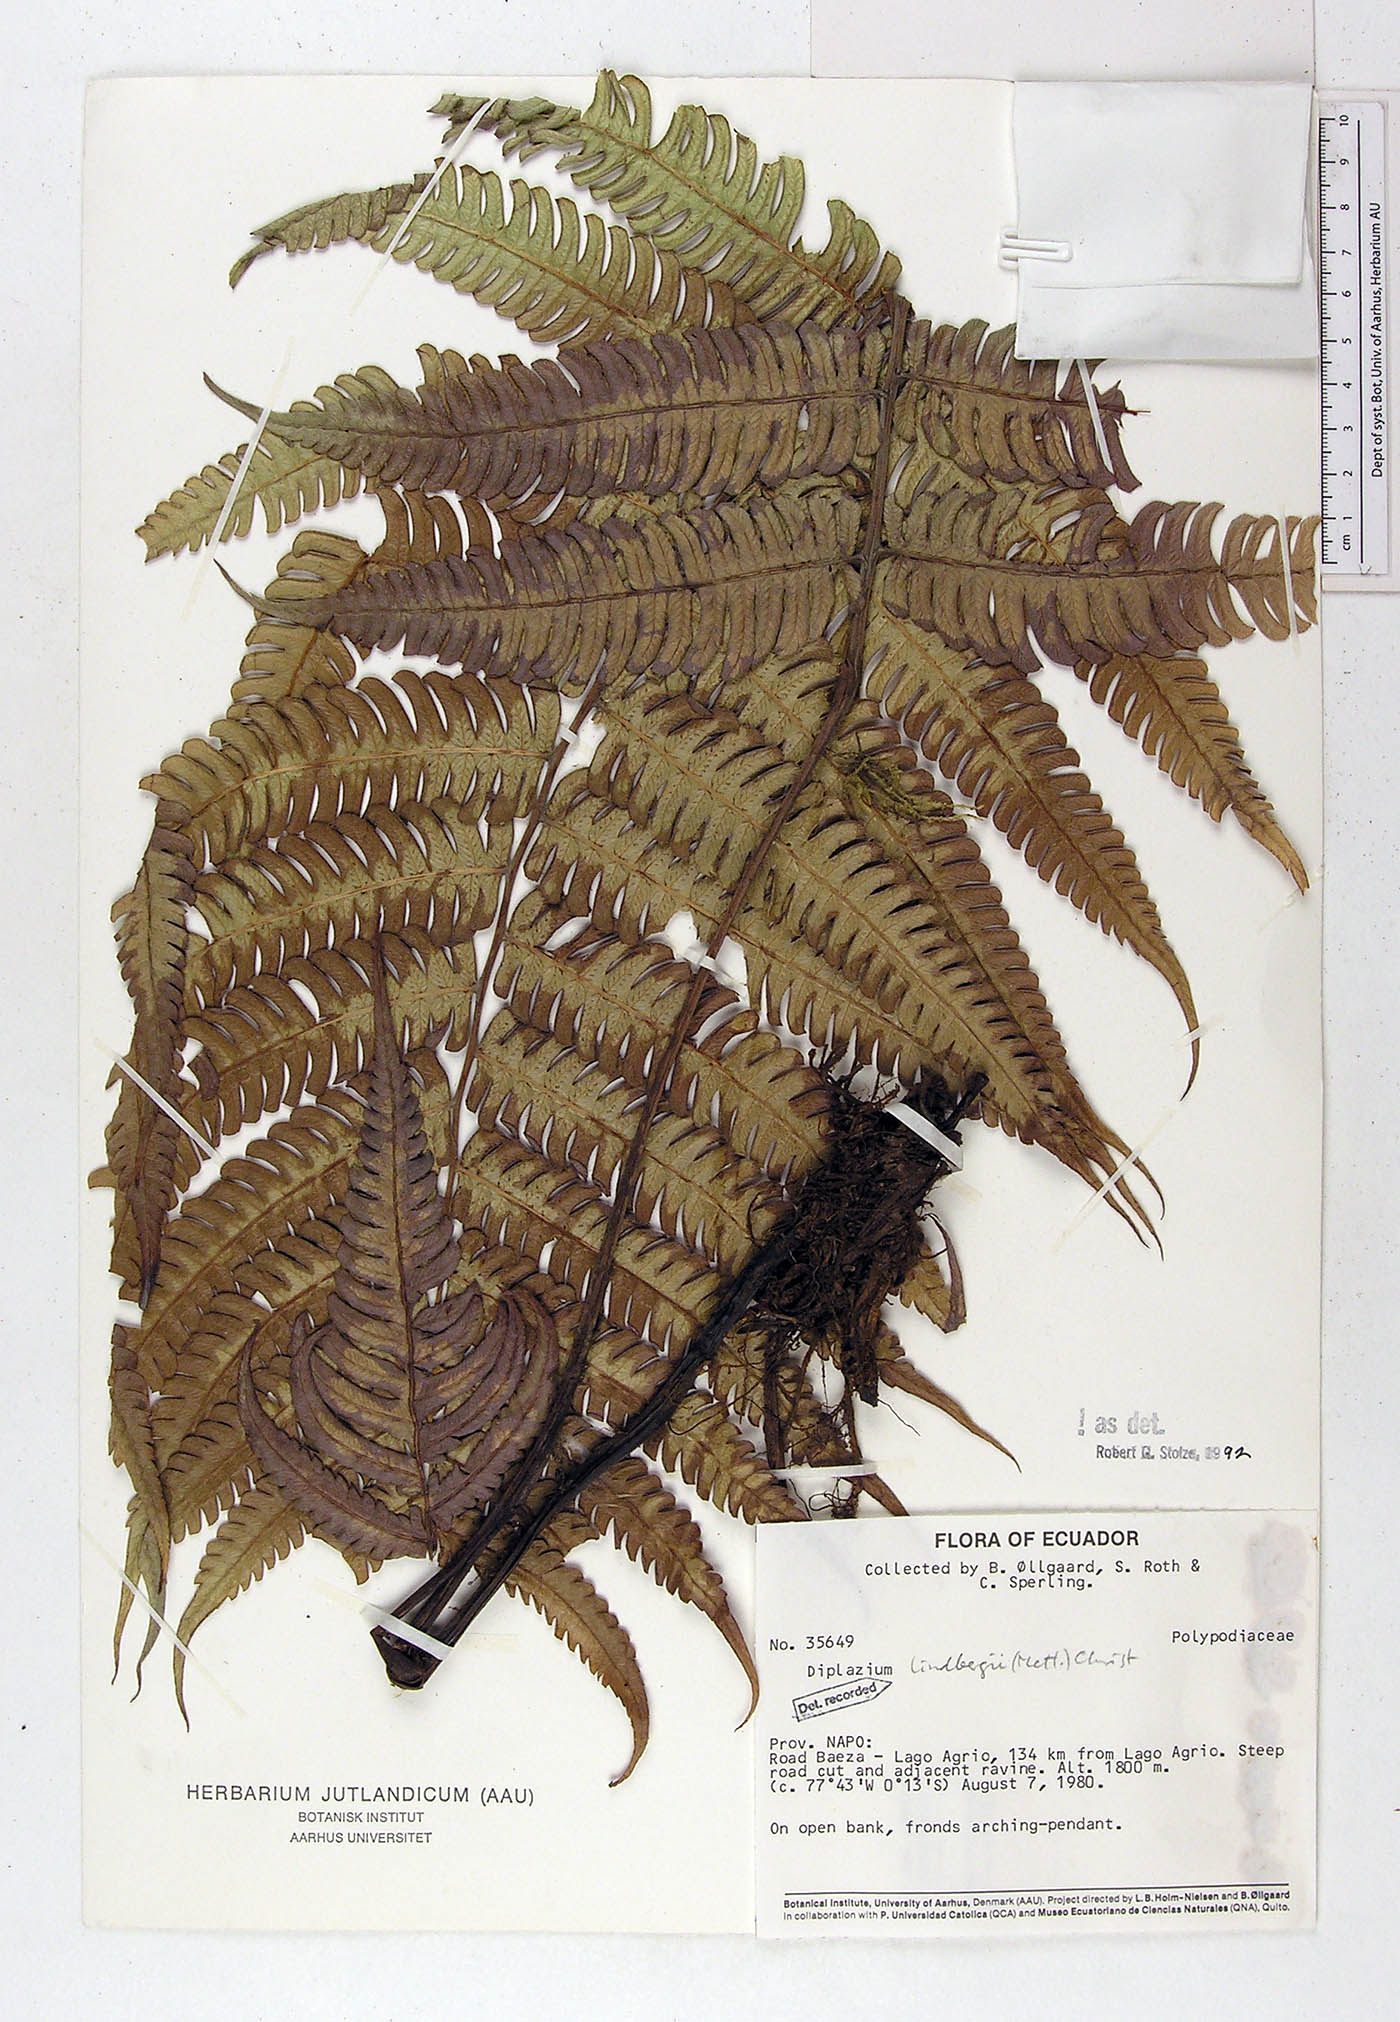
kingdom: Plantae
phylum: Tracheophyta
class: Polypodiopsida
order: Polypodiales
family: Athyriaceae
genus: Diplazium
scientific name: Diplazium lindbergii
